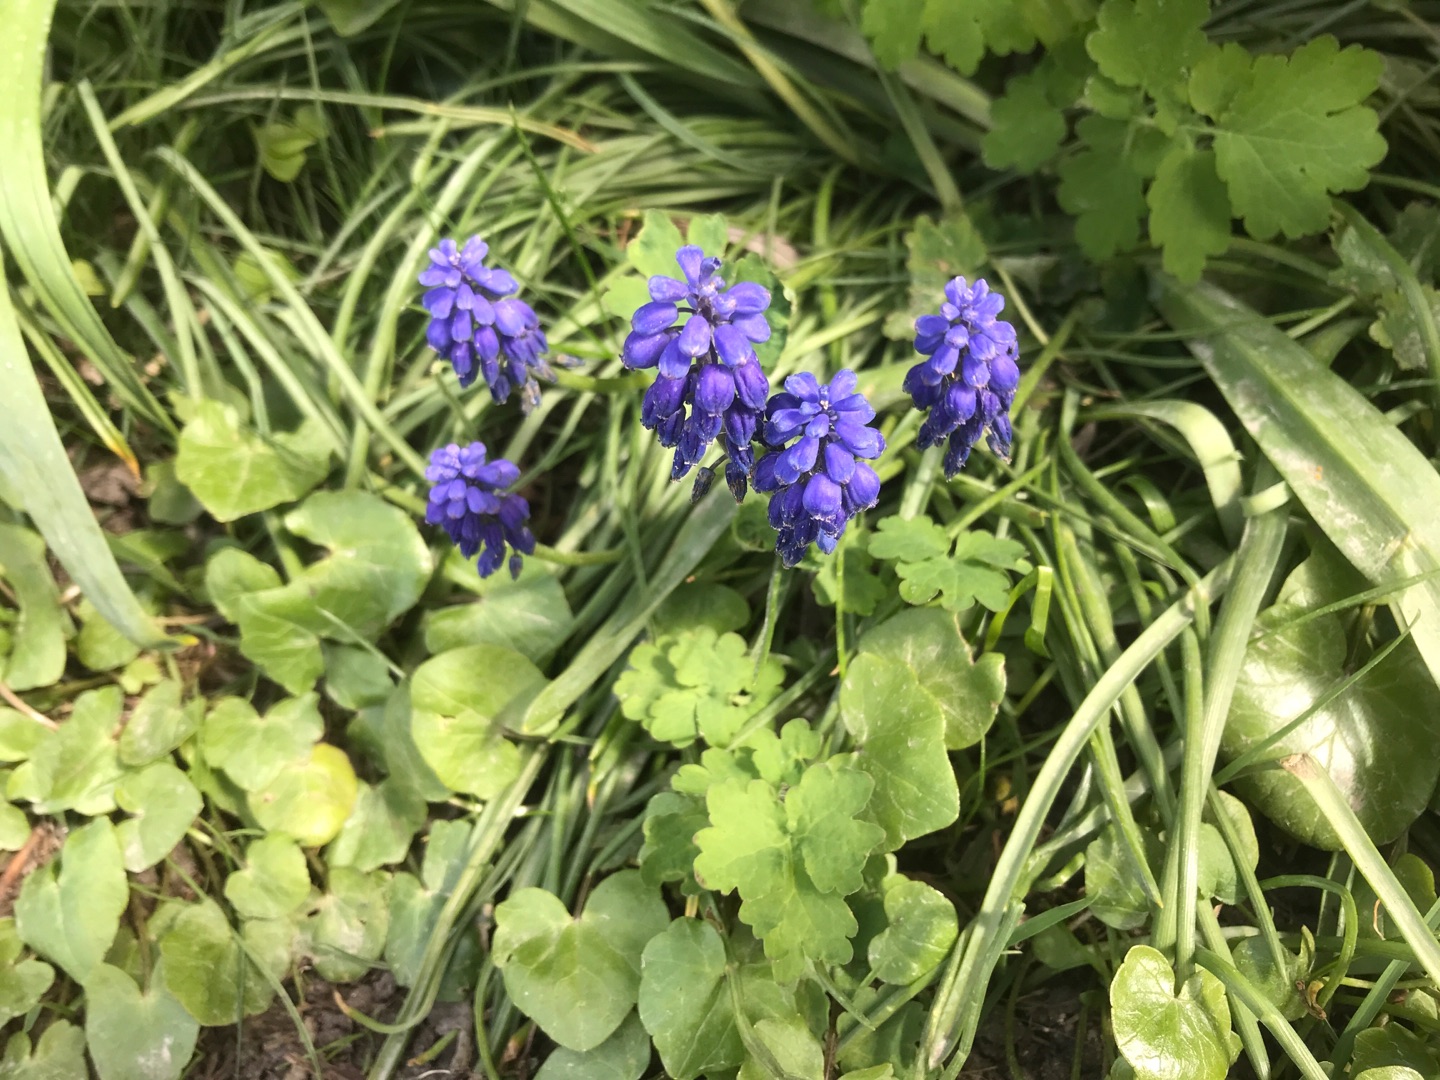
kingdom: Plantae
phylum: Tracheophyta
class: Liliopsida
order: Asparagales
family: Asparagaceae
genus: Muscari
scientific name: Muscari armeniacum
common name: Armensk perlehyacint
